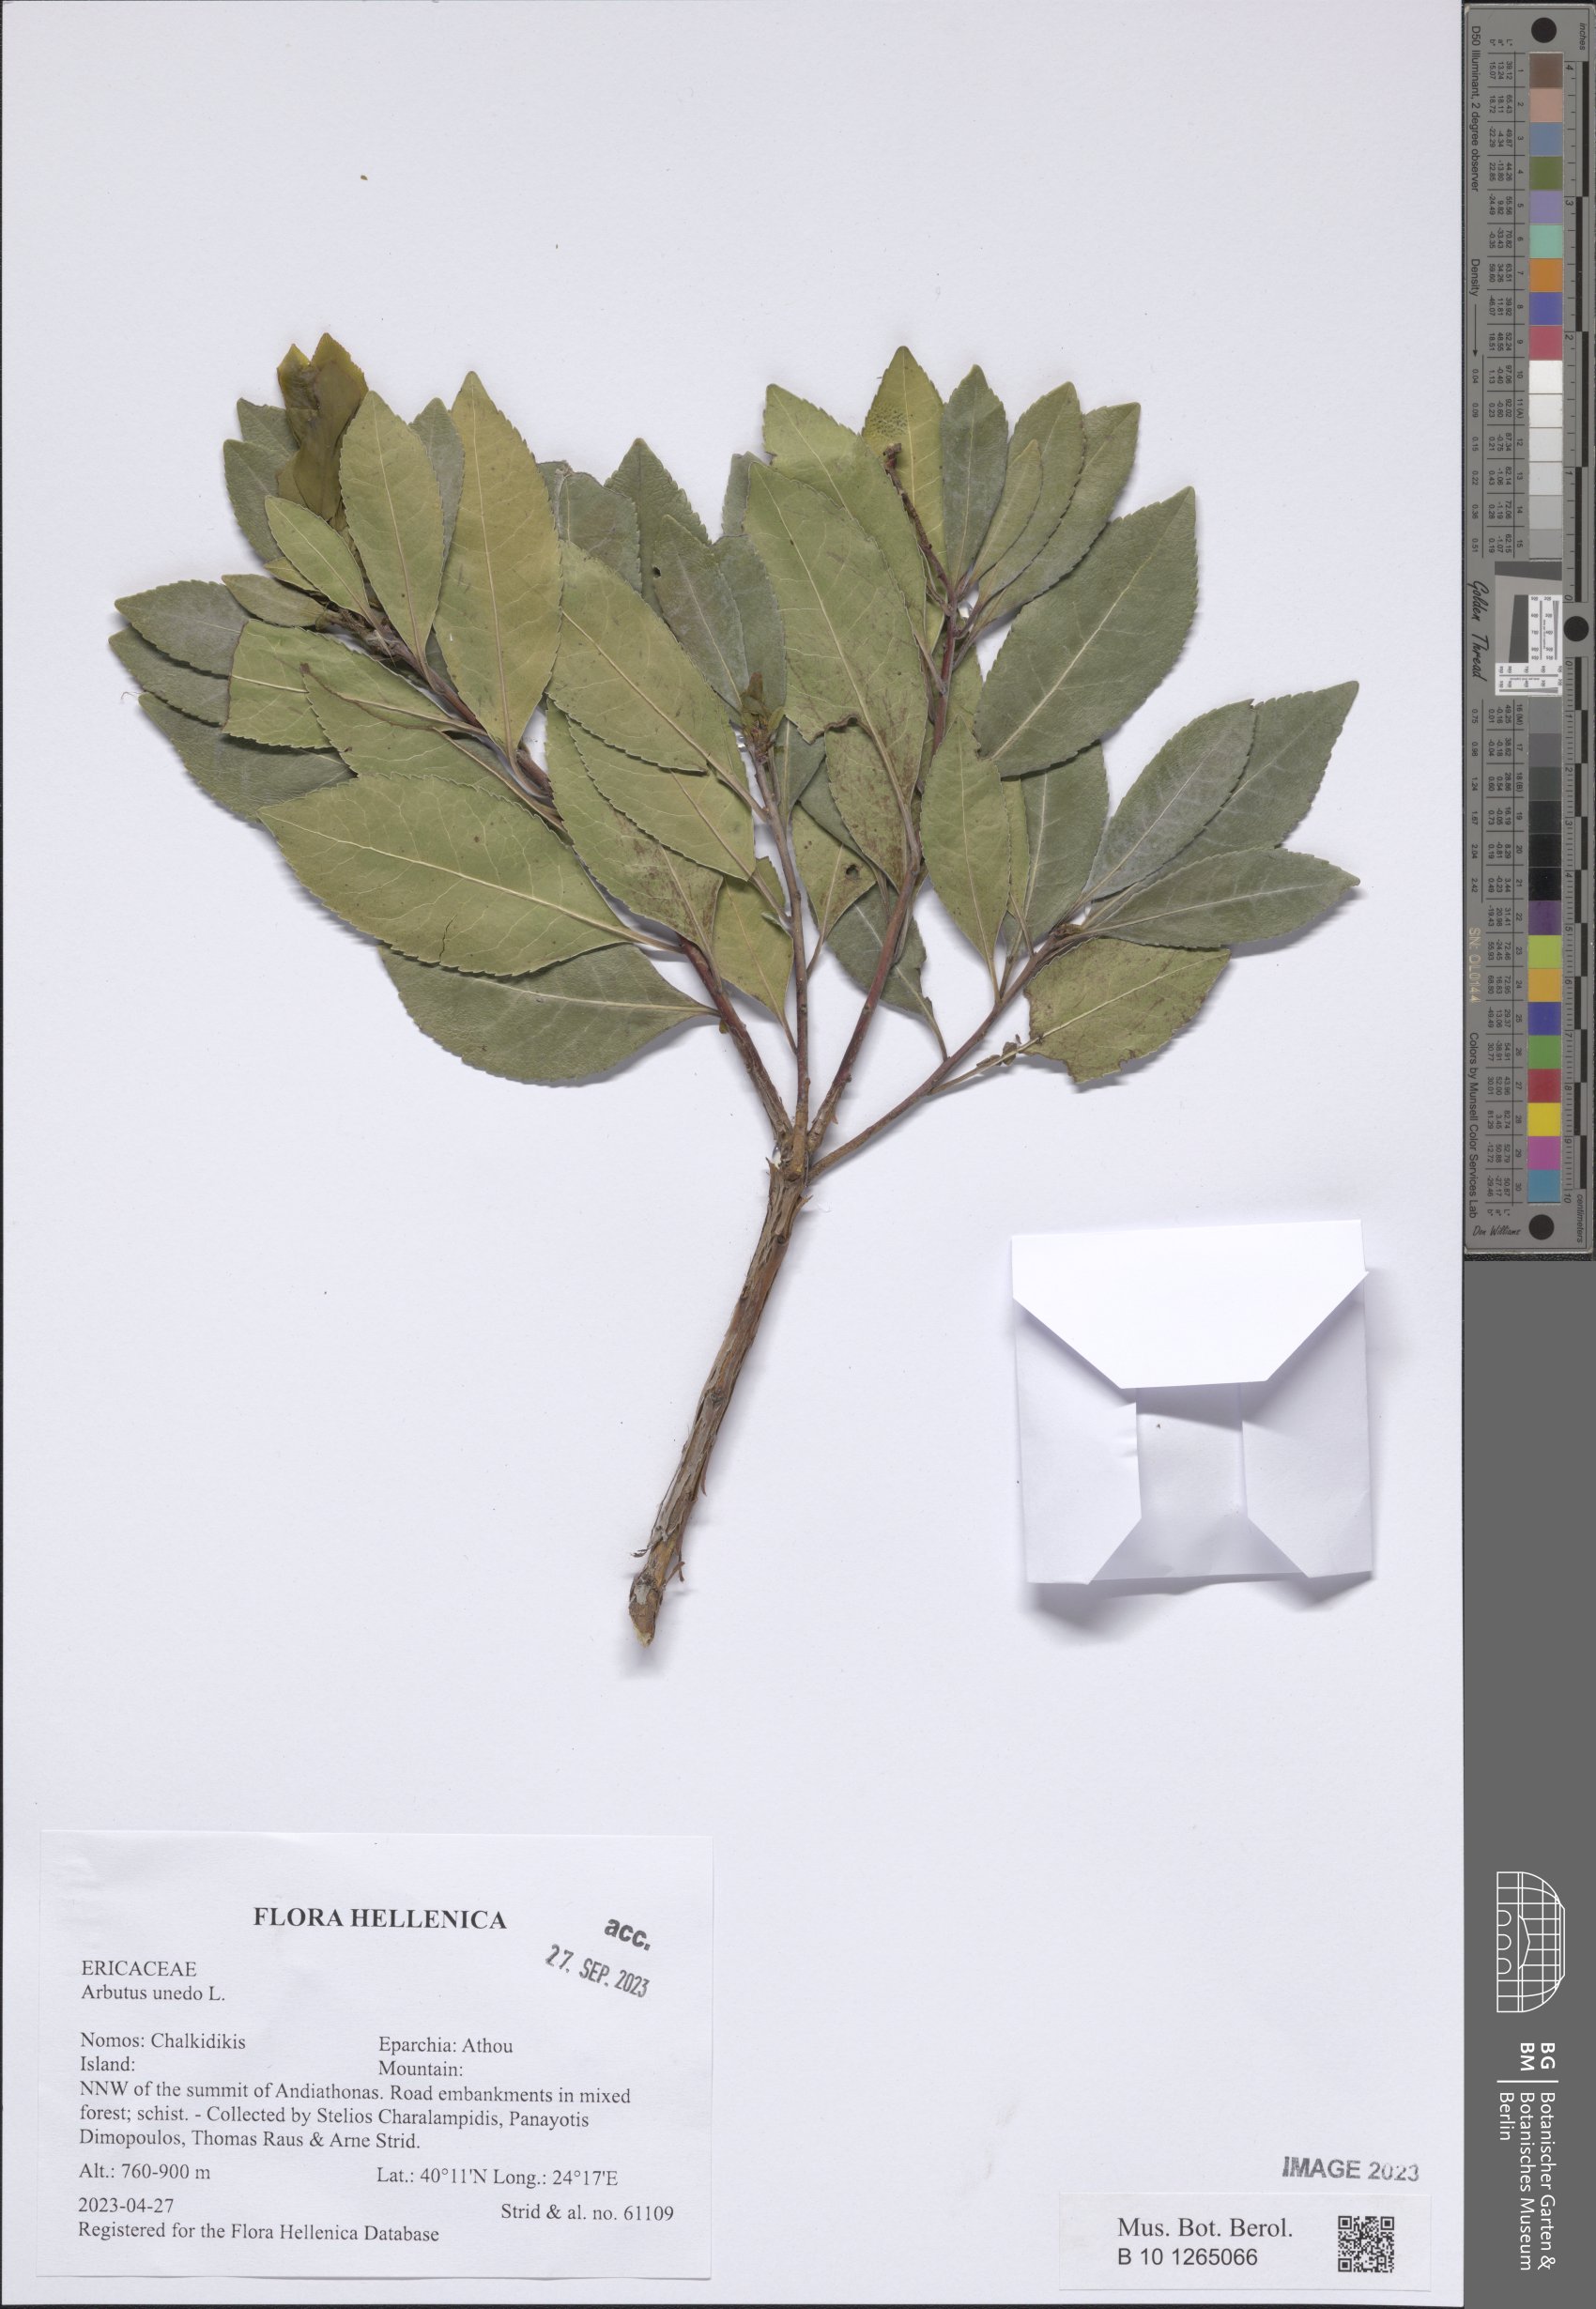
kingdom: Plantae
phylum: Tracheophyta
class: Magnoliopsida
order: Ericales
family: Ericaceae
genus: Arbutus
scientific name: Arbutus unedo
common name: Strawberry-tree
